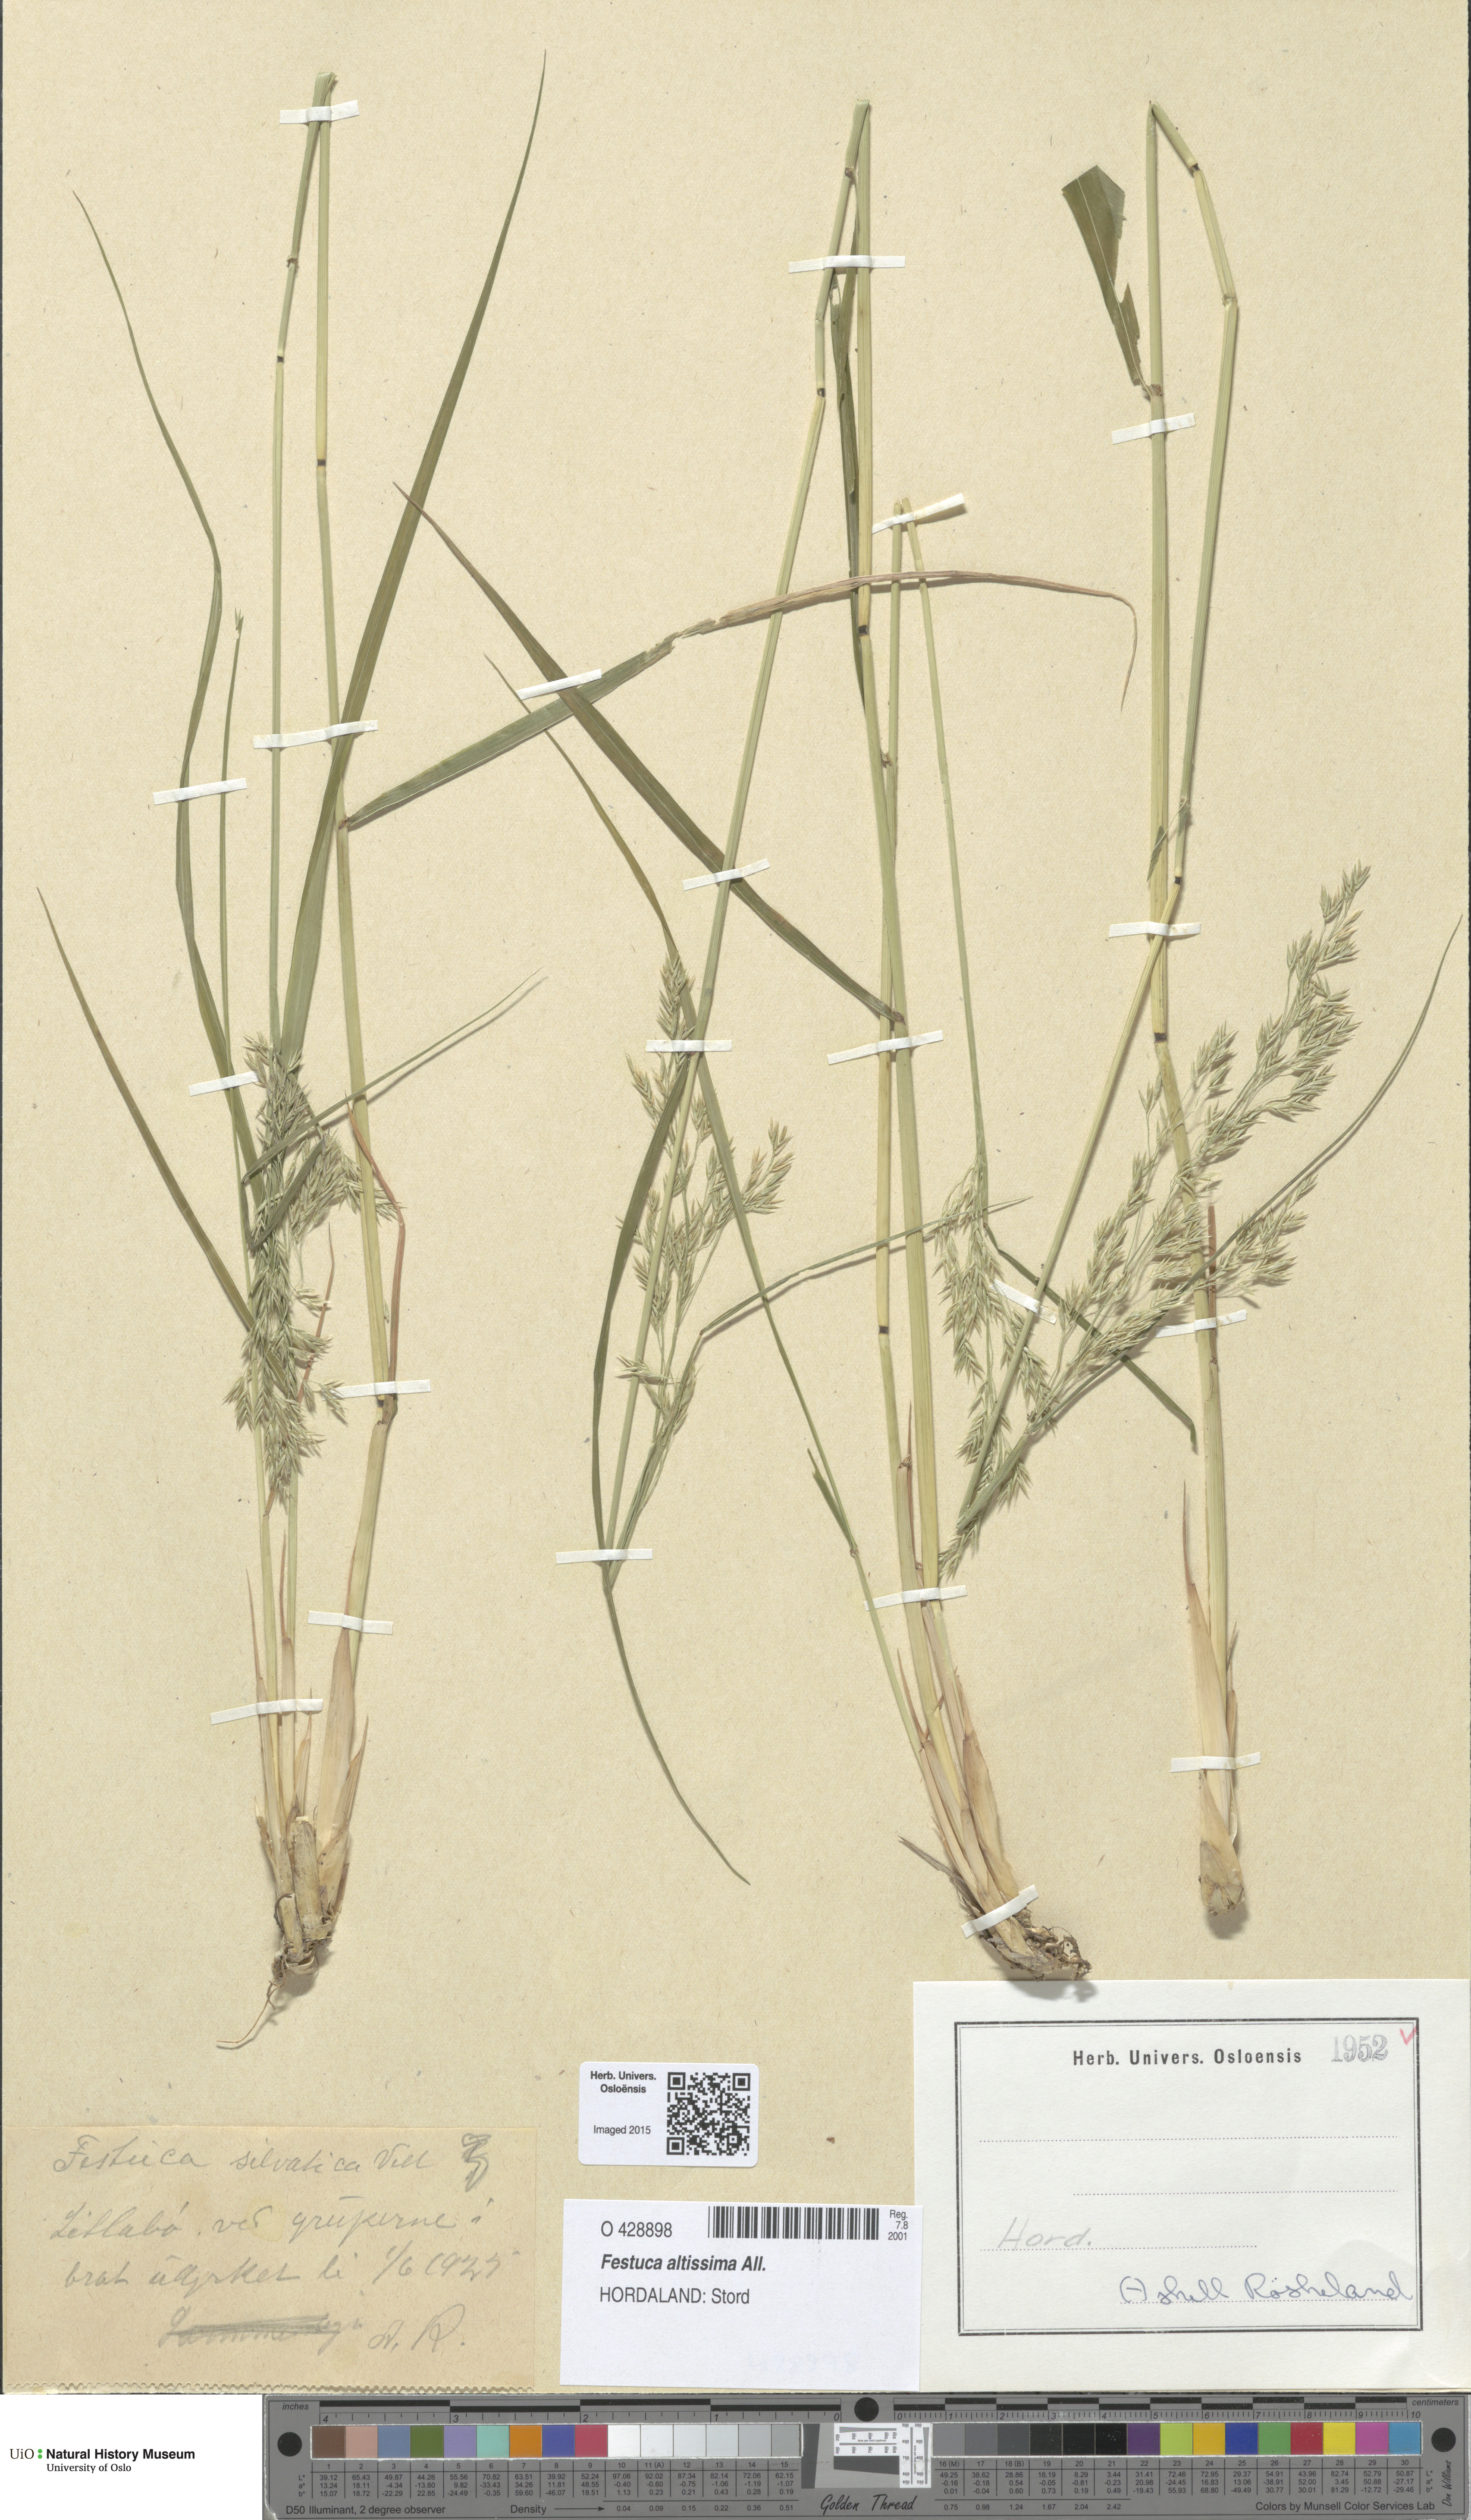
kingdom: Plantae
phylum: Tracheophyta
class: Liliopsida
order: Poales
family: Poaceae
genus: Festuca
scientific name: Festuca altissima
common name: Wood fescue
